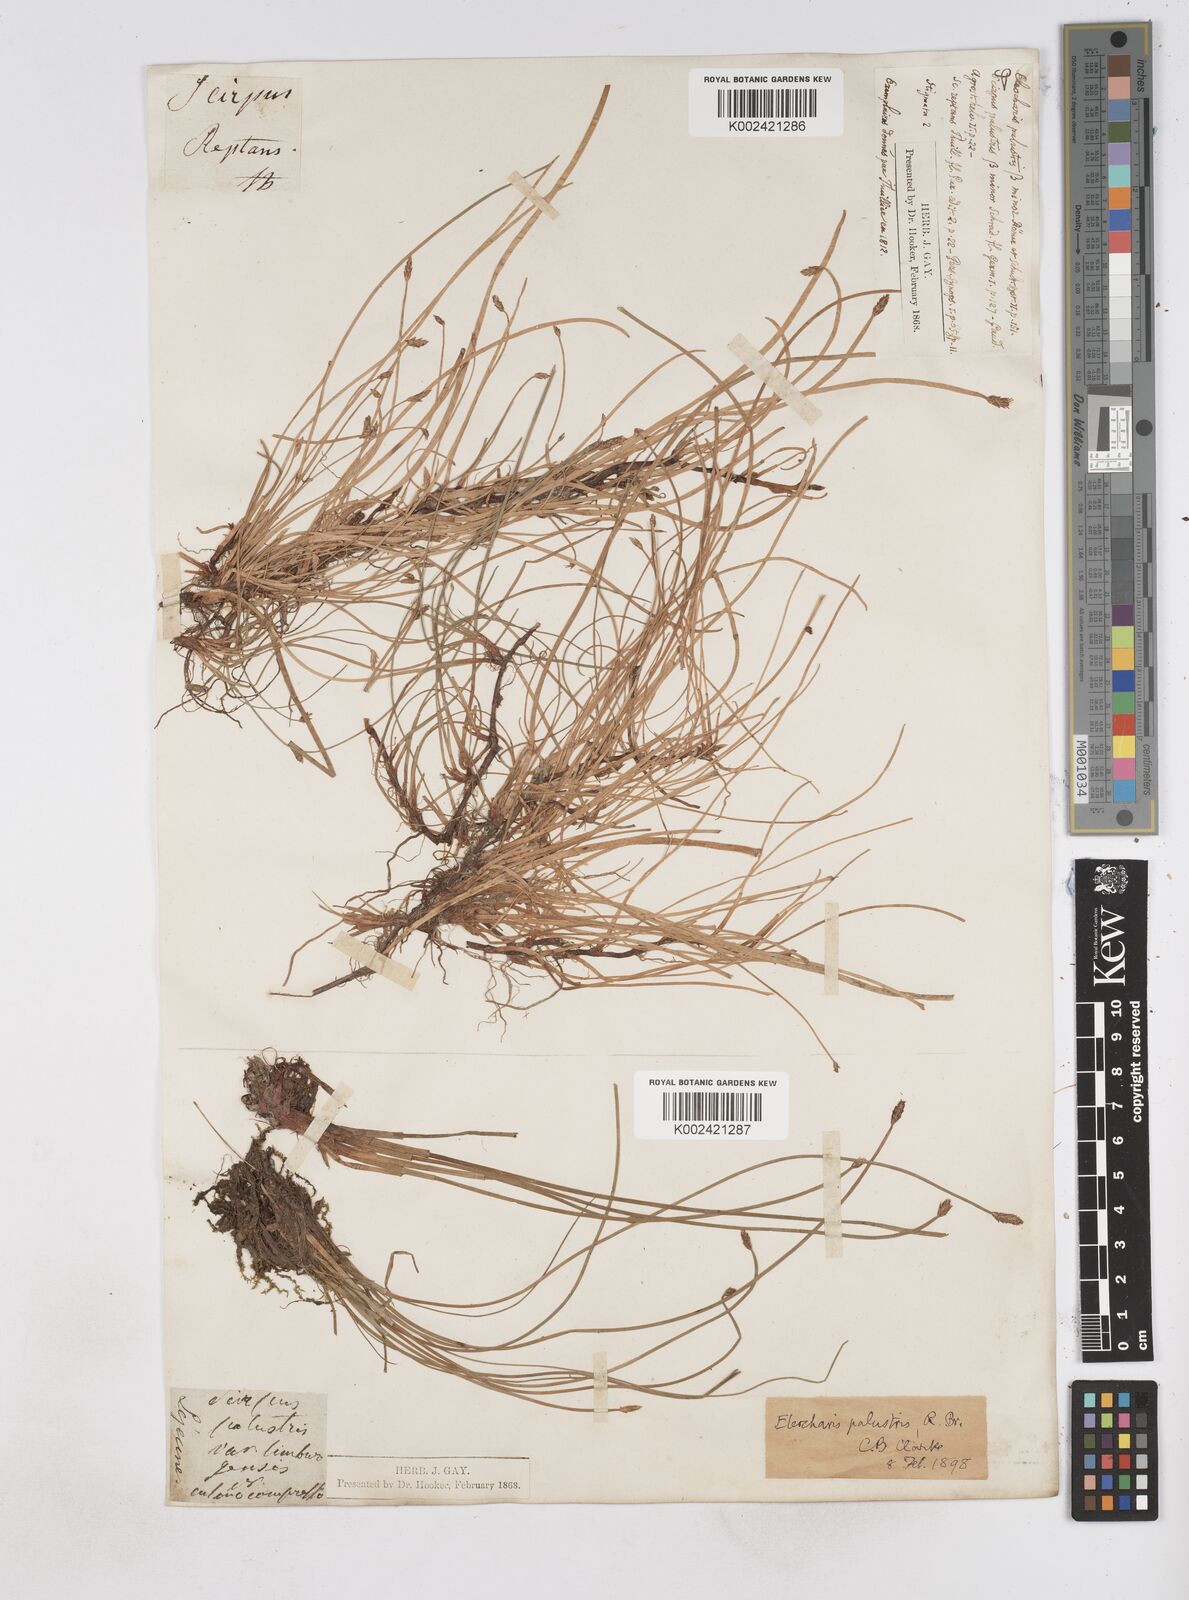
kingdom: Plantae
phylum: Tracheophyta
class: Liliopsida
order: Poales
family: Cyperaceae
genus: Eleocharis
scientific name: Eleocharis palustris
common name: Common spike-rush
